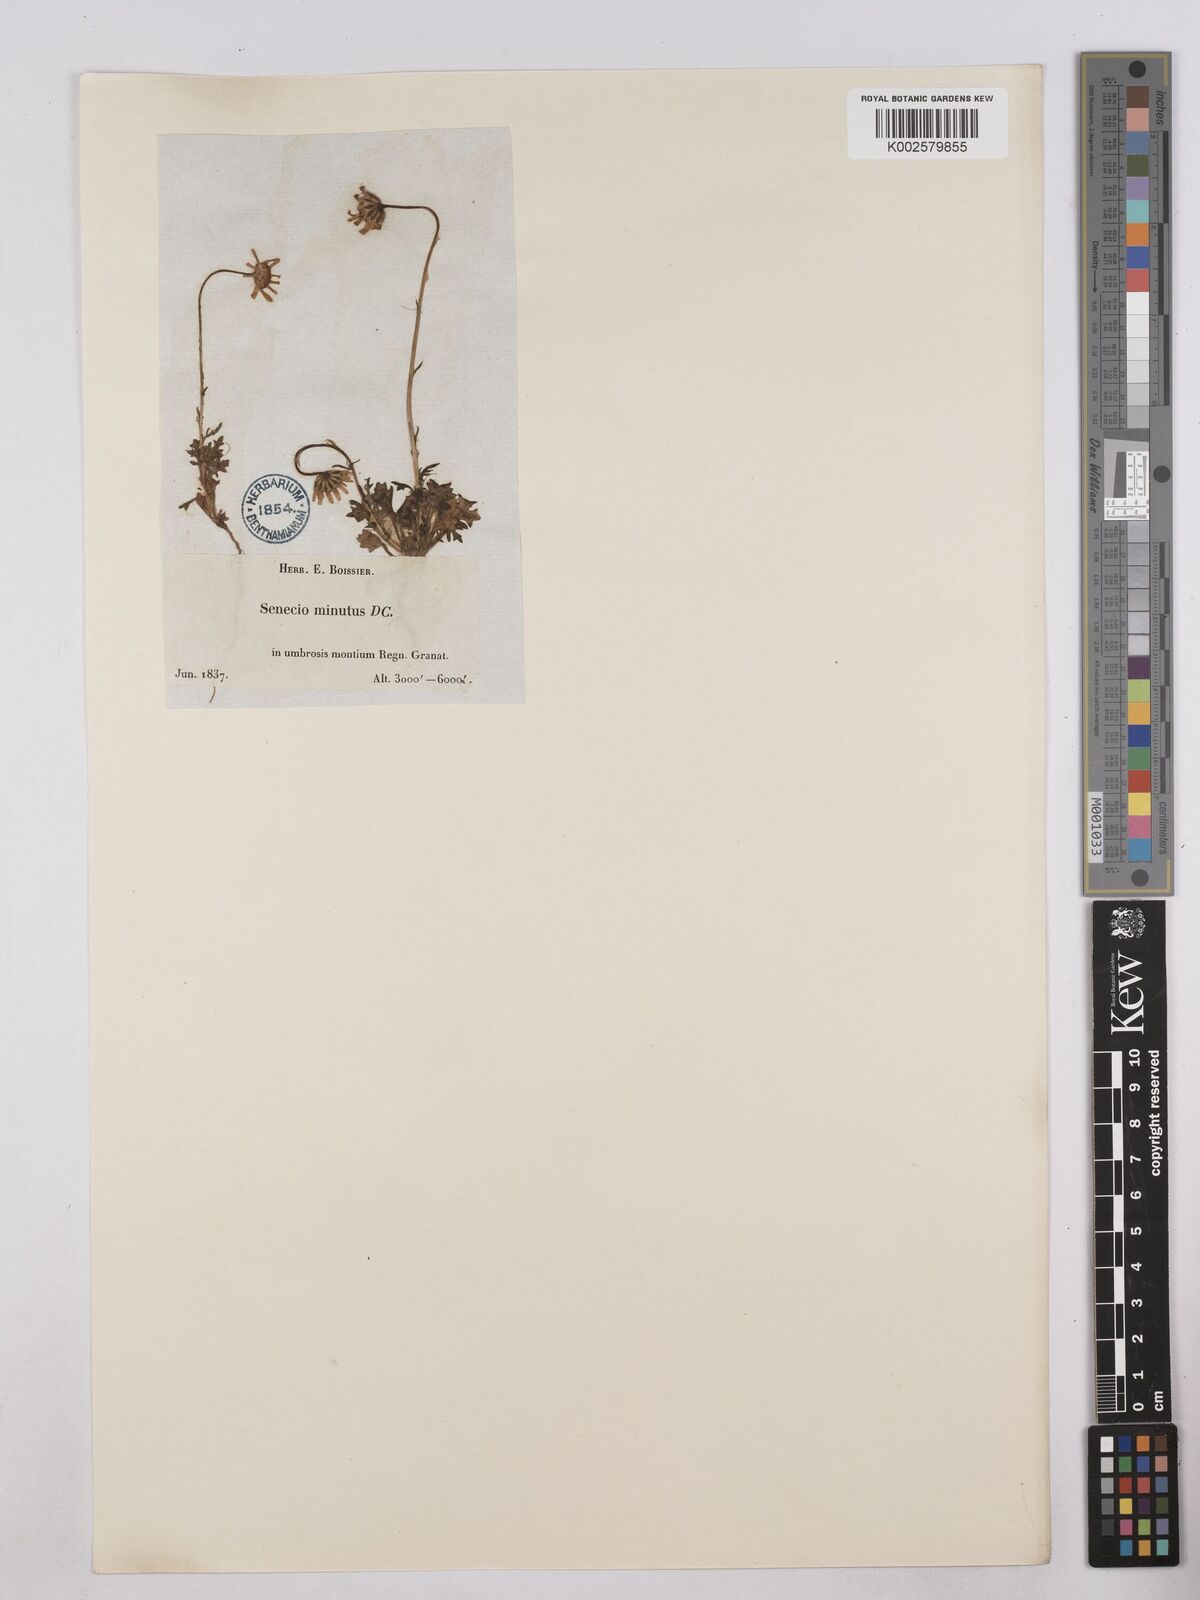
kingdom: Plantae
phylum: Tracheophyta
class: Magnoliopsida
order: Asterales
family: Asteraceae
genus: Jacobaea
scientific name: Jacobaea minuta
